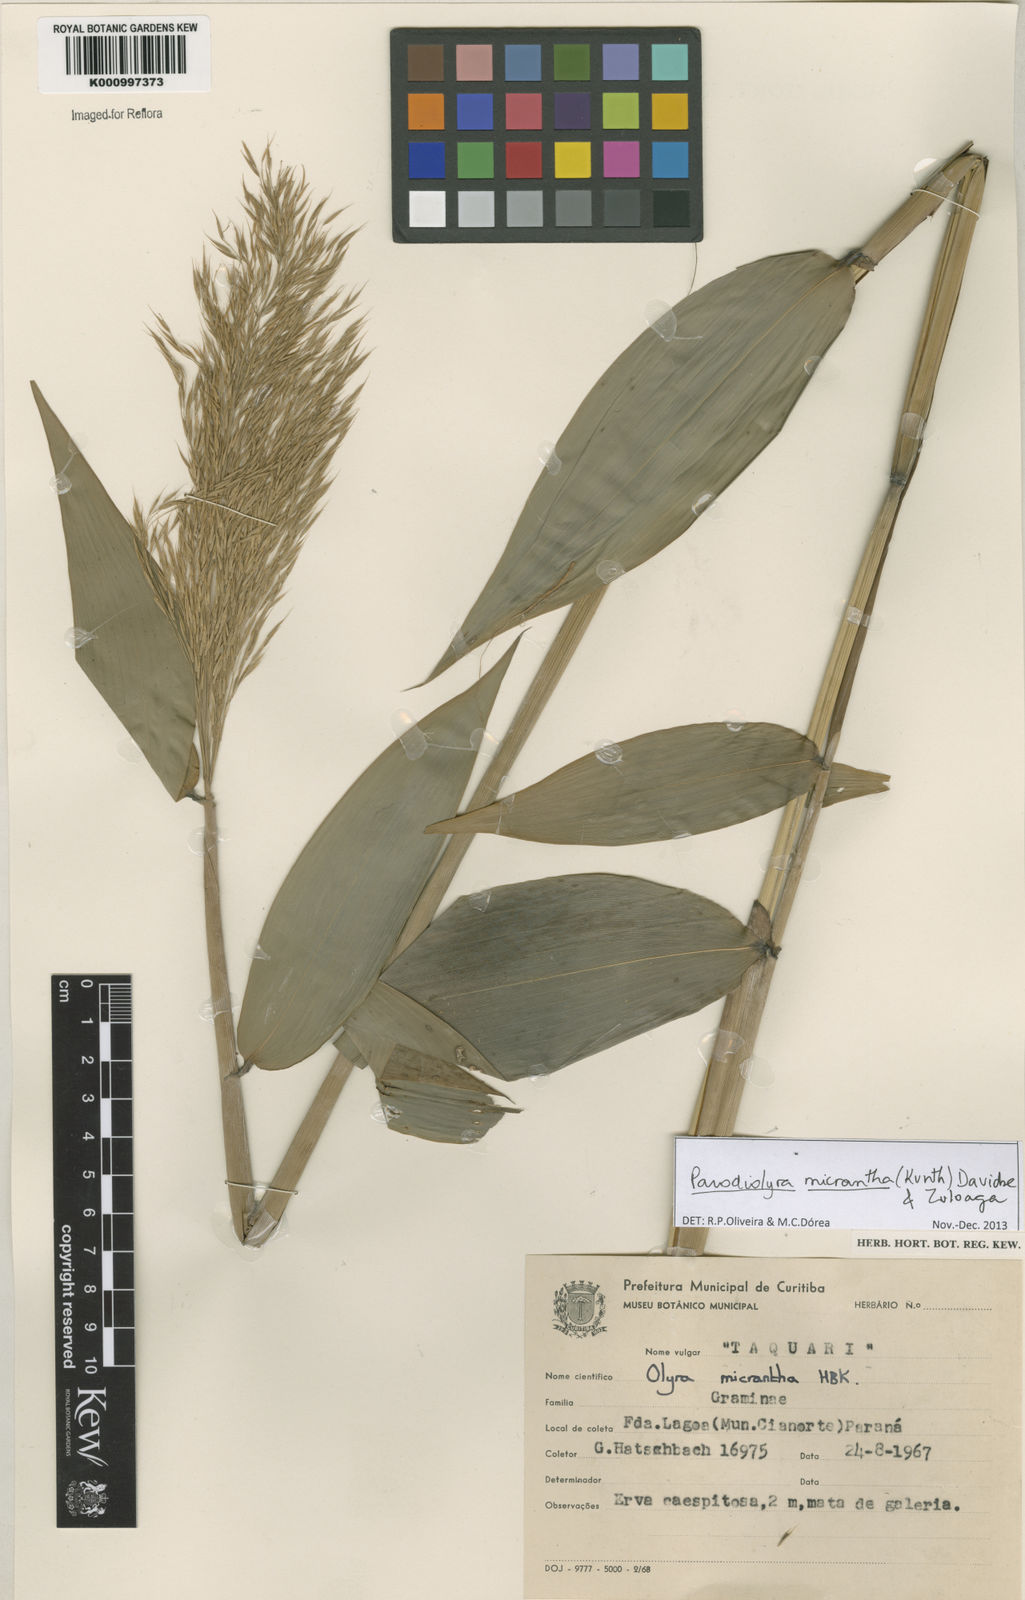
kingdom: Plantae
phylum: Tracheophyta
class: Liliopsida
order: Poales
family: Poaceae
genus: Taquara
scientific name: Taquara micrantha
